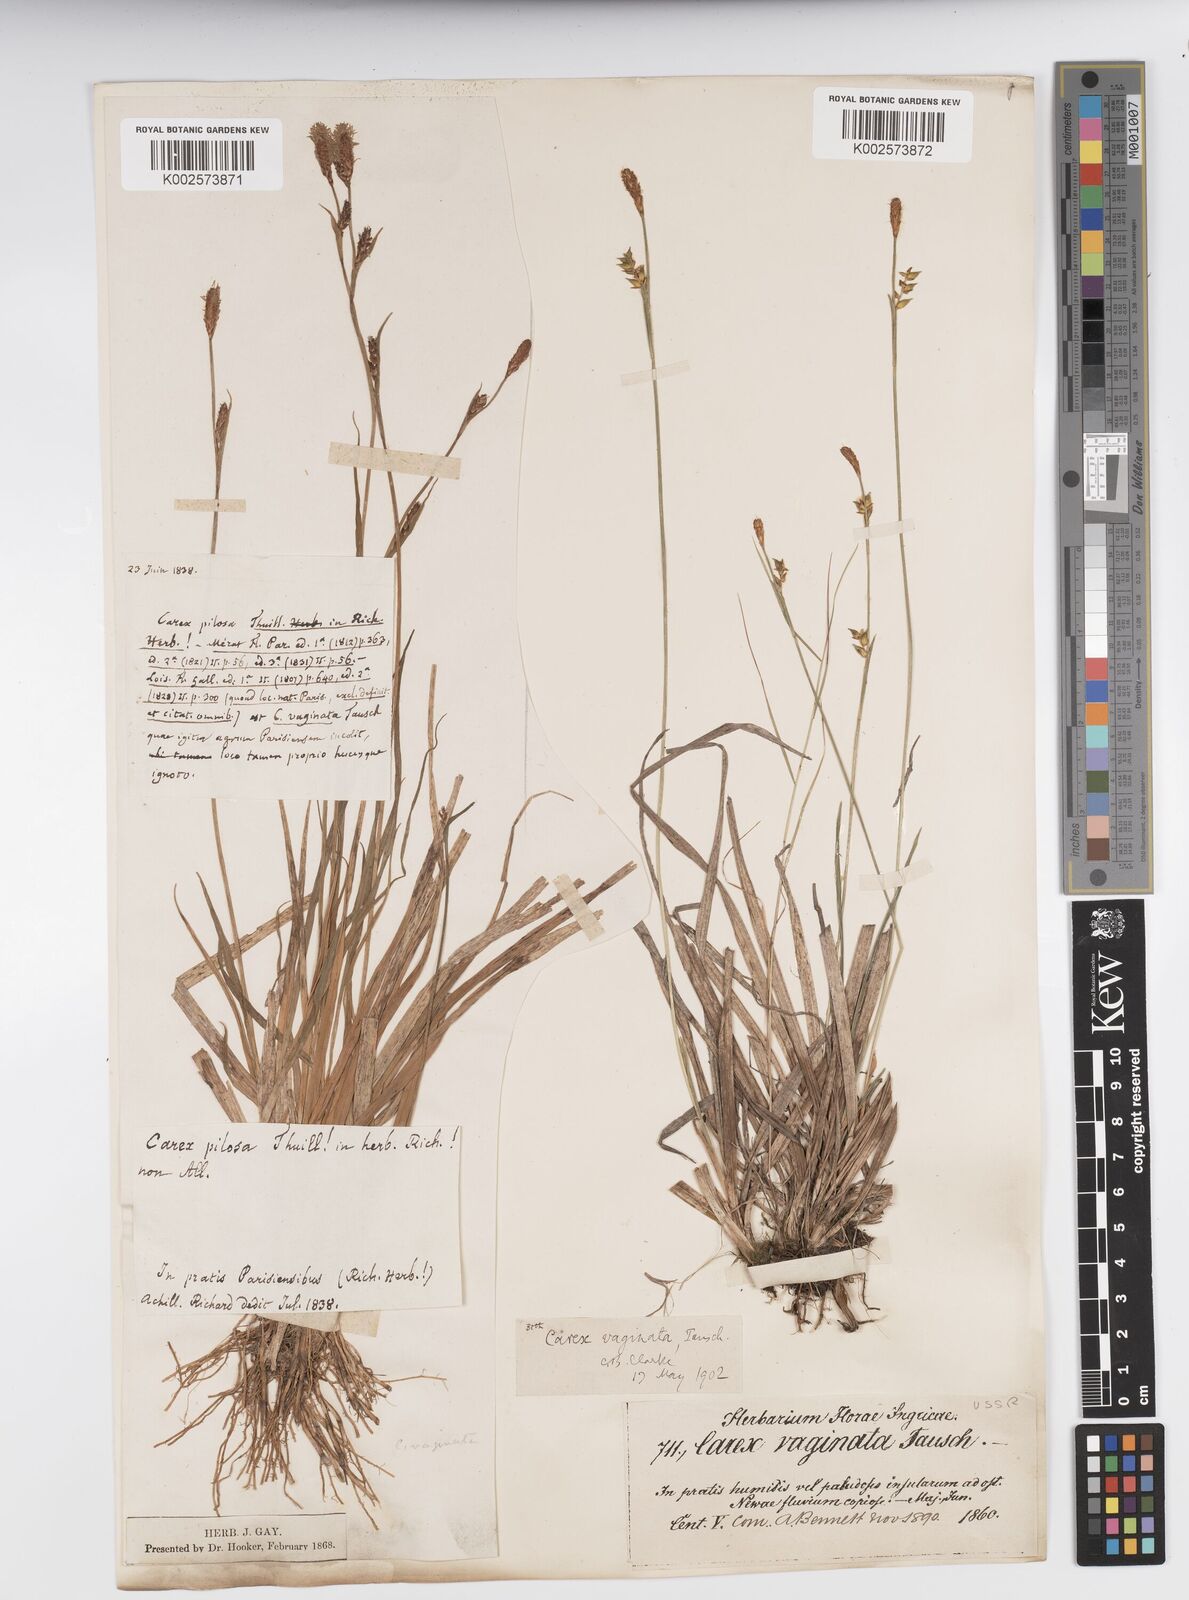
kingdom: Plantae
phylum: Tracheophyta
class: Liliopsida
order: Poales
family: Cyperaceae
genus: Carex
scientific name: Carex vaginata
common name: Sheathed sedge
